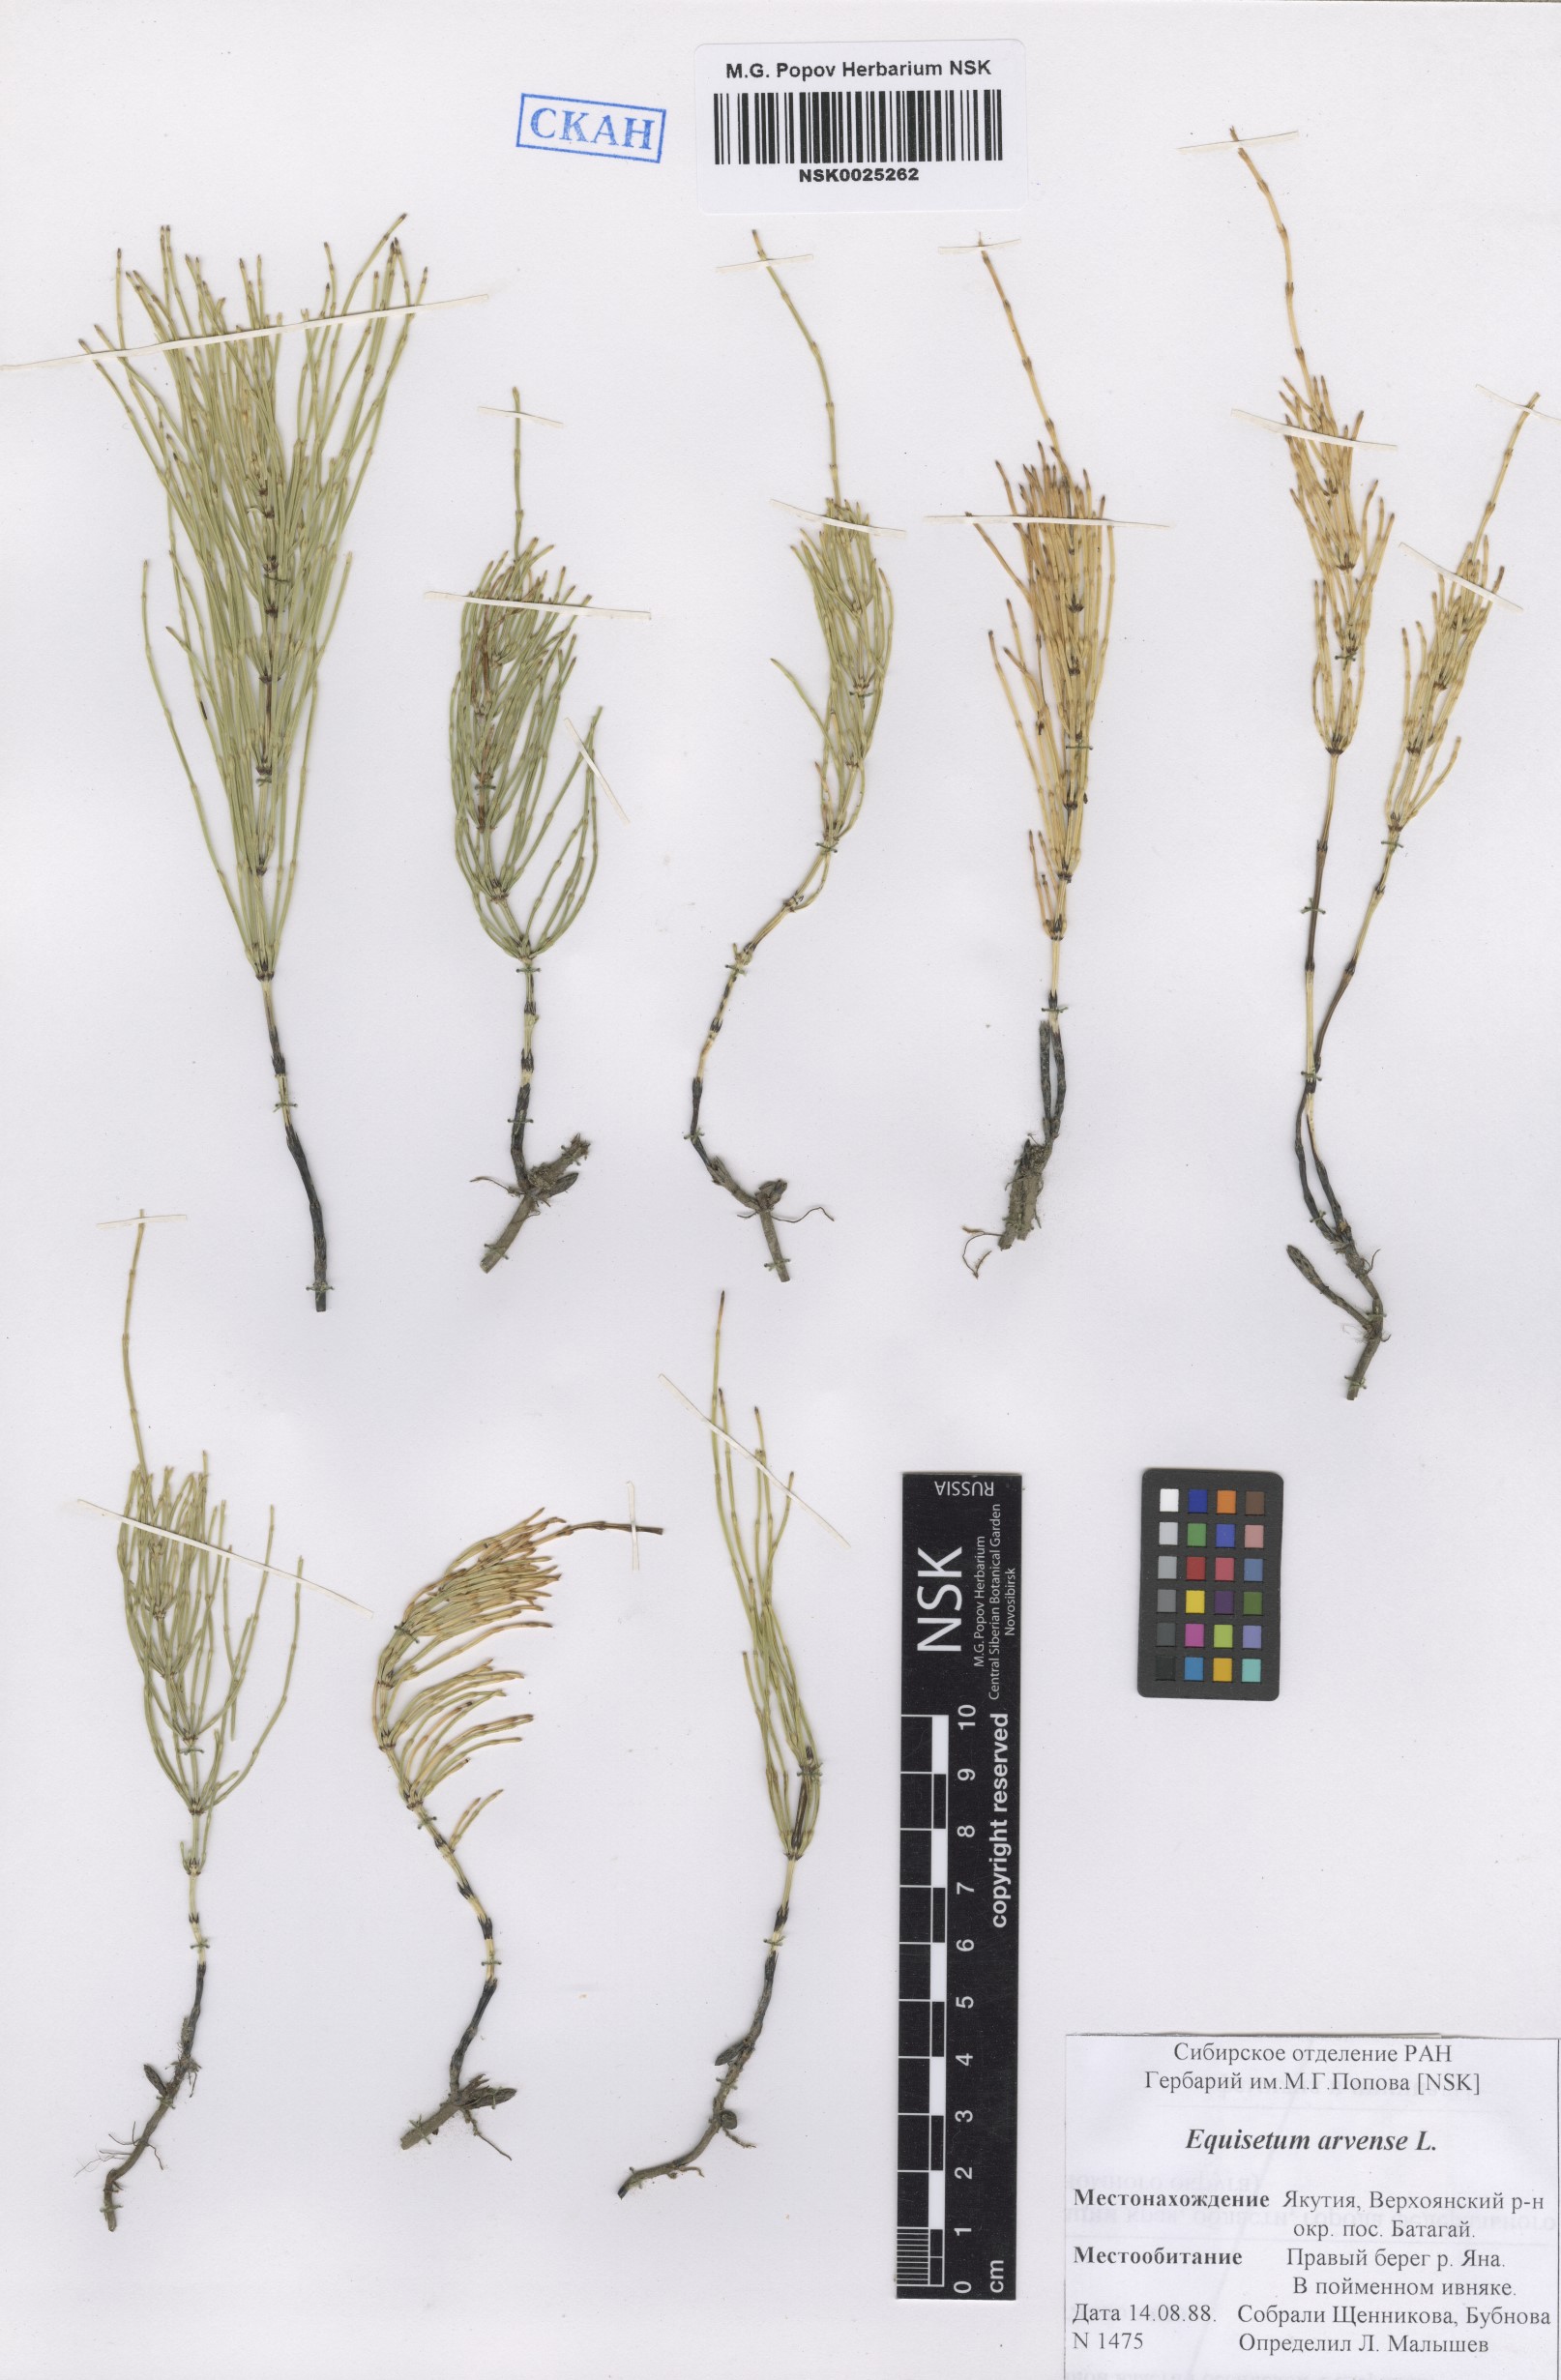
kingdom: Plantae
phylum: Tracheophyta
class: Polypodiopsida
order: Equisetales
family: Equisetaceae
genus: Equisetum
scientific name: Equisetum arvense
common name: Field horsetail
